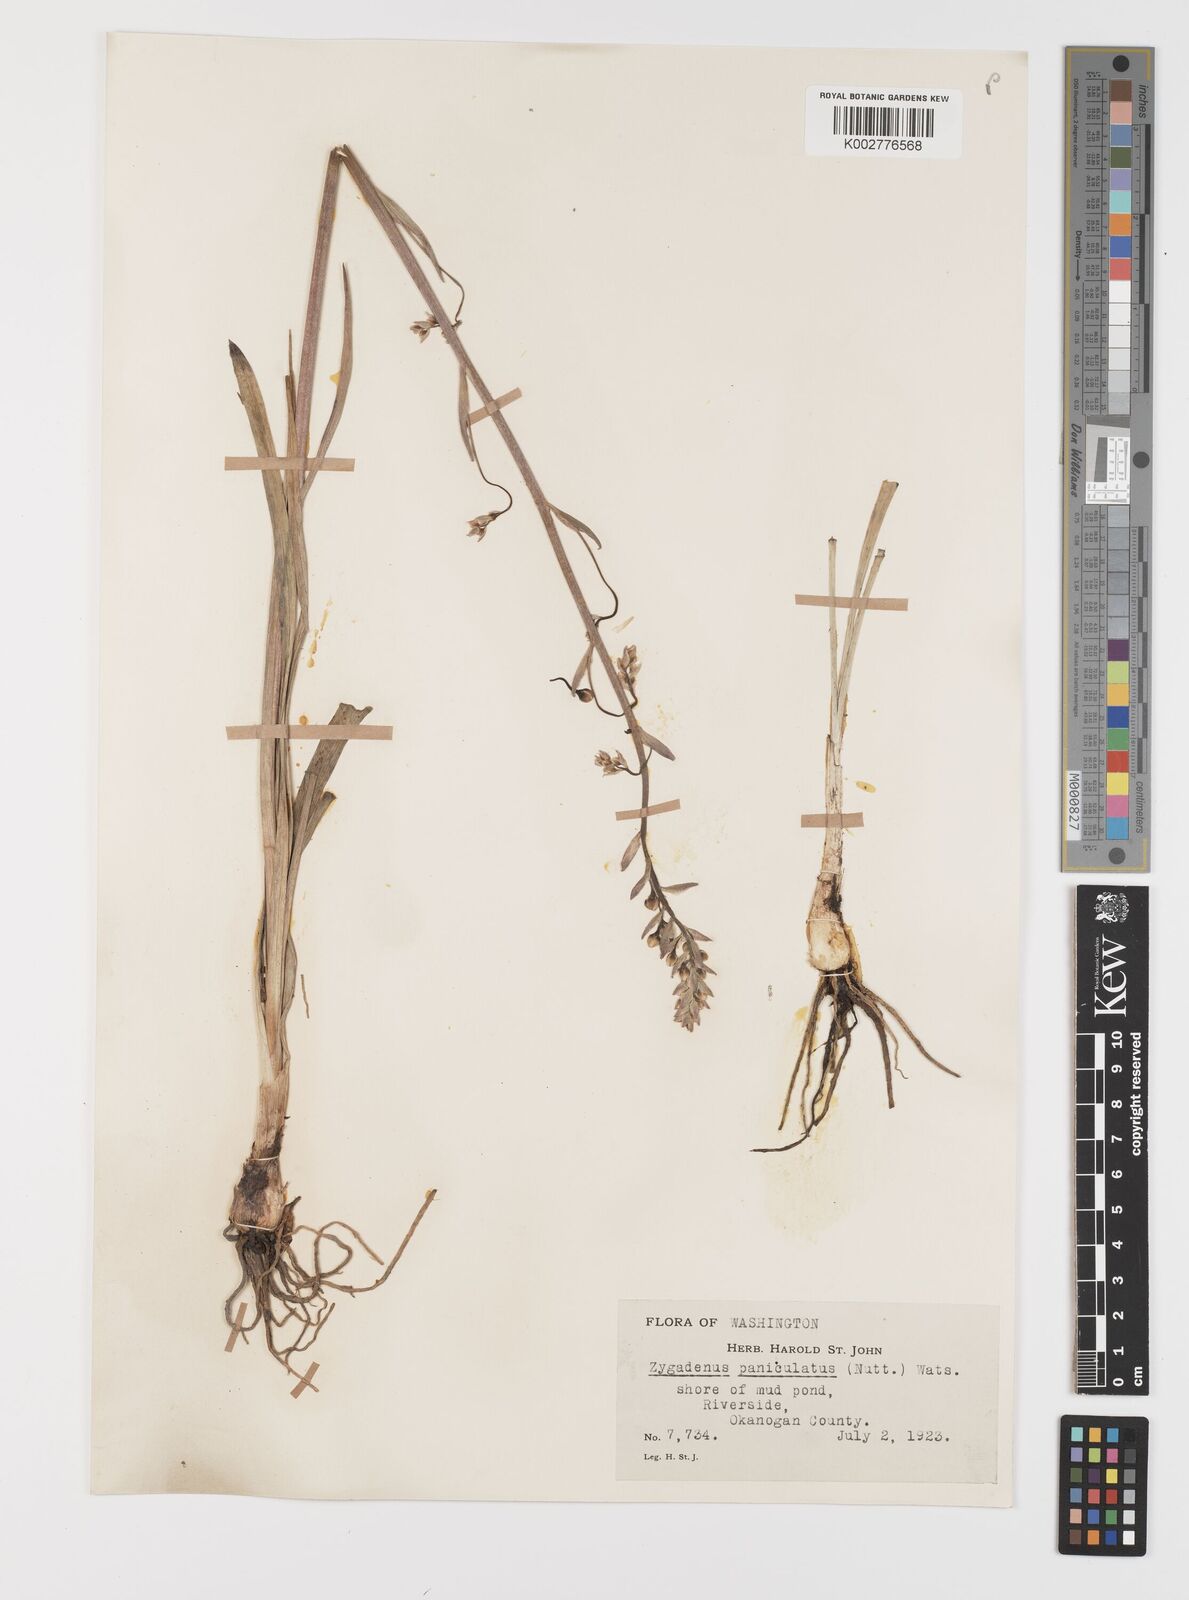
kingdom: Plantae
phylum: Tracheophyta
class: Liliopsida
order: Liliales
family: Melanthiaceae
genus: Toxicoscordion
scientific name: Toxicoscordion paniculatum
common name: Foothill death camas
